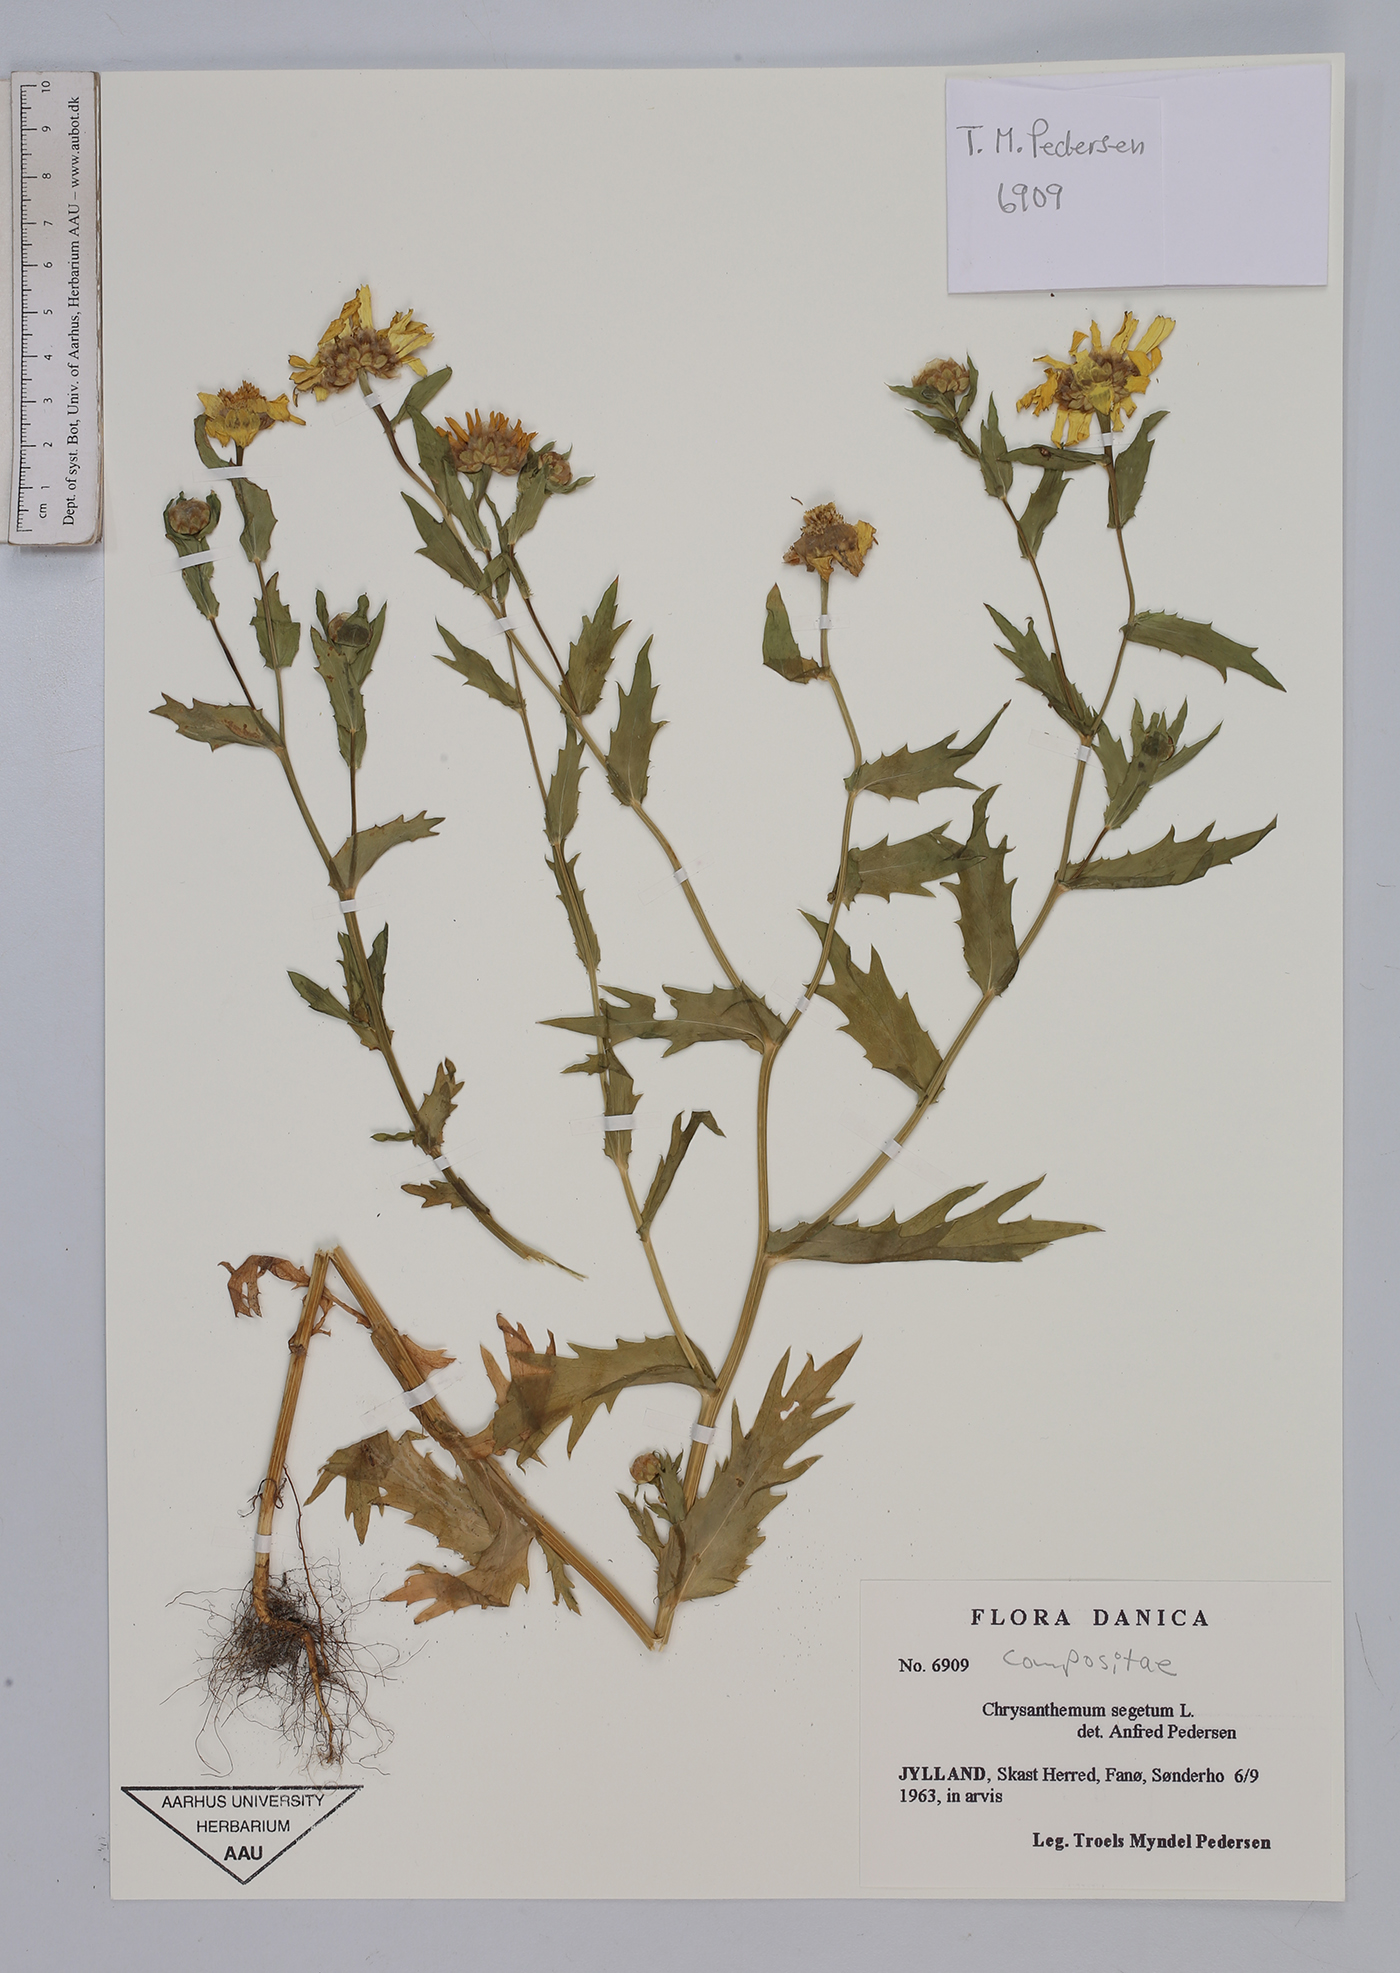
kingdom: Plantae
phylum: Tracheophyta
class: Magnoliopsida
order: Asterales
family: Asteraceae
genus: Glebionis
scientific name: Glebionis segetum
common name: Corndaisy
